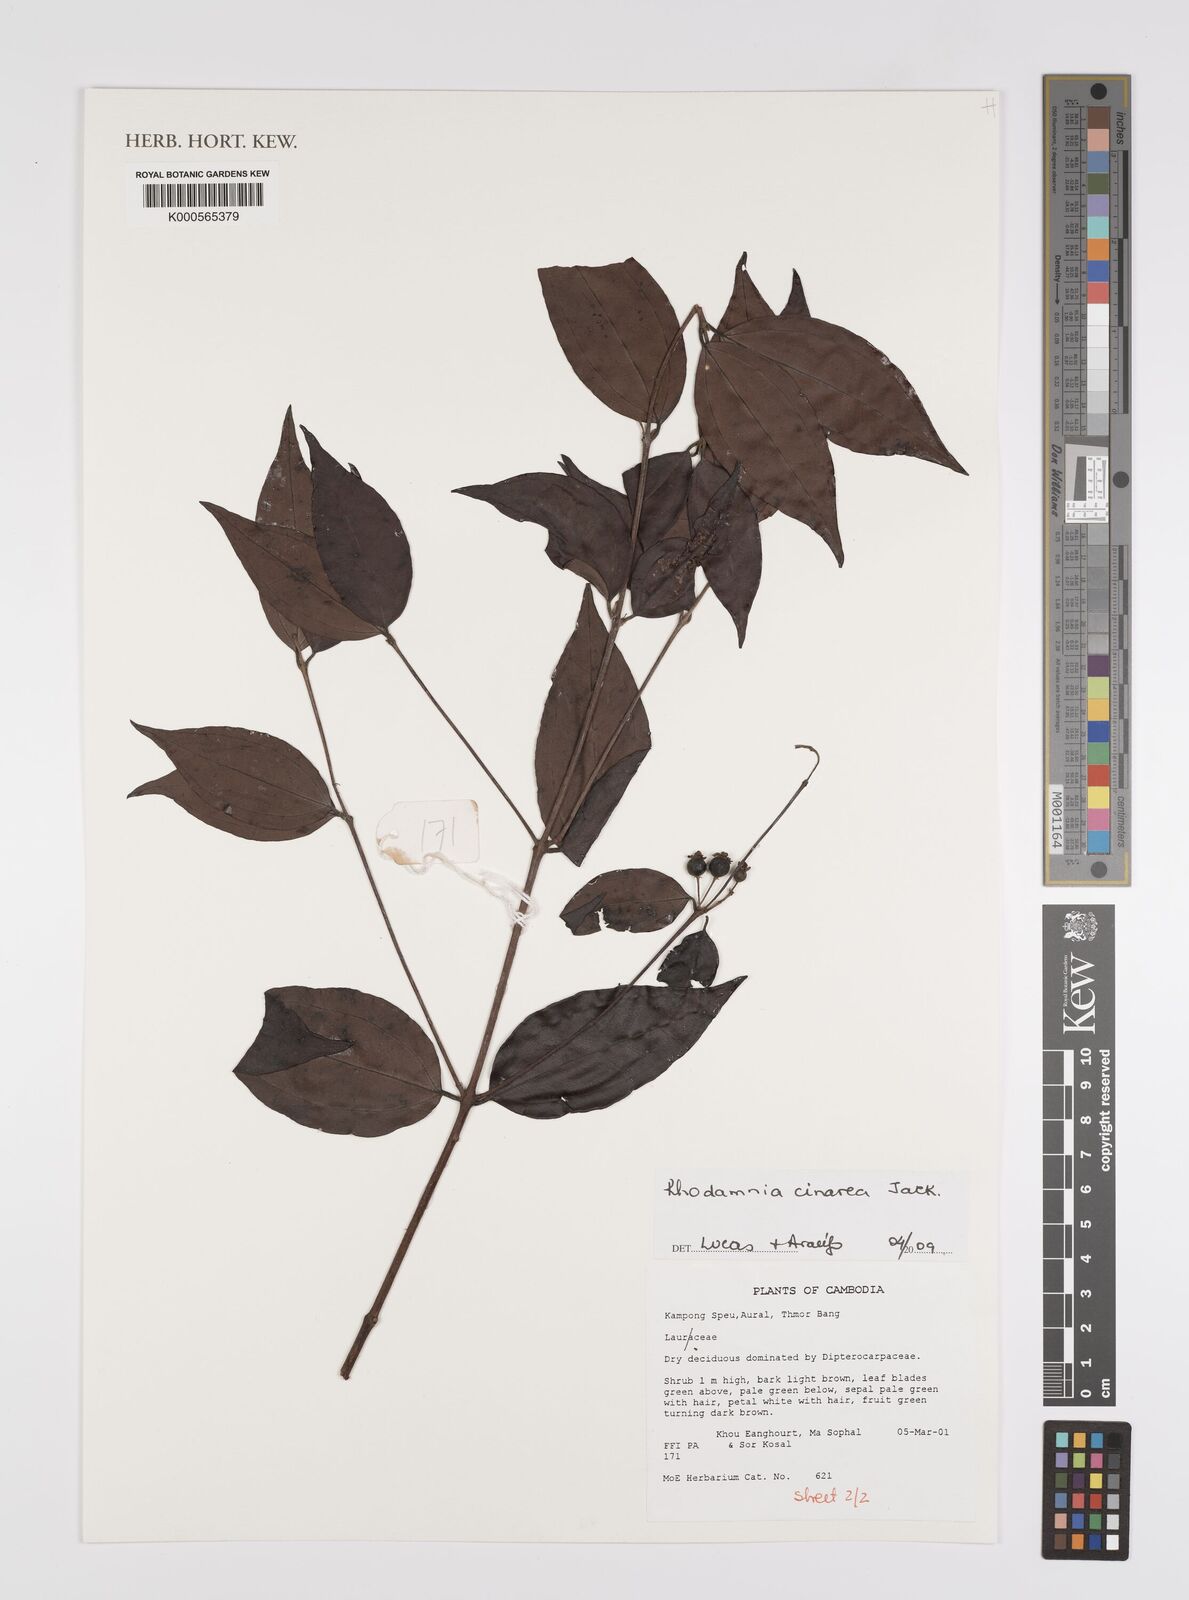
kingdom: Plantae
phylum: Tracheophyta
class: Magnoliopsida
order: Myrtales
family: Myrtaceae
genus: Rhodamnia
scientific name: Rhodamnia
